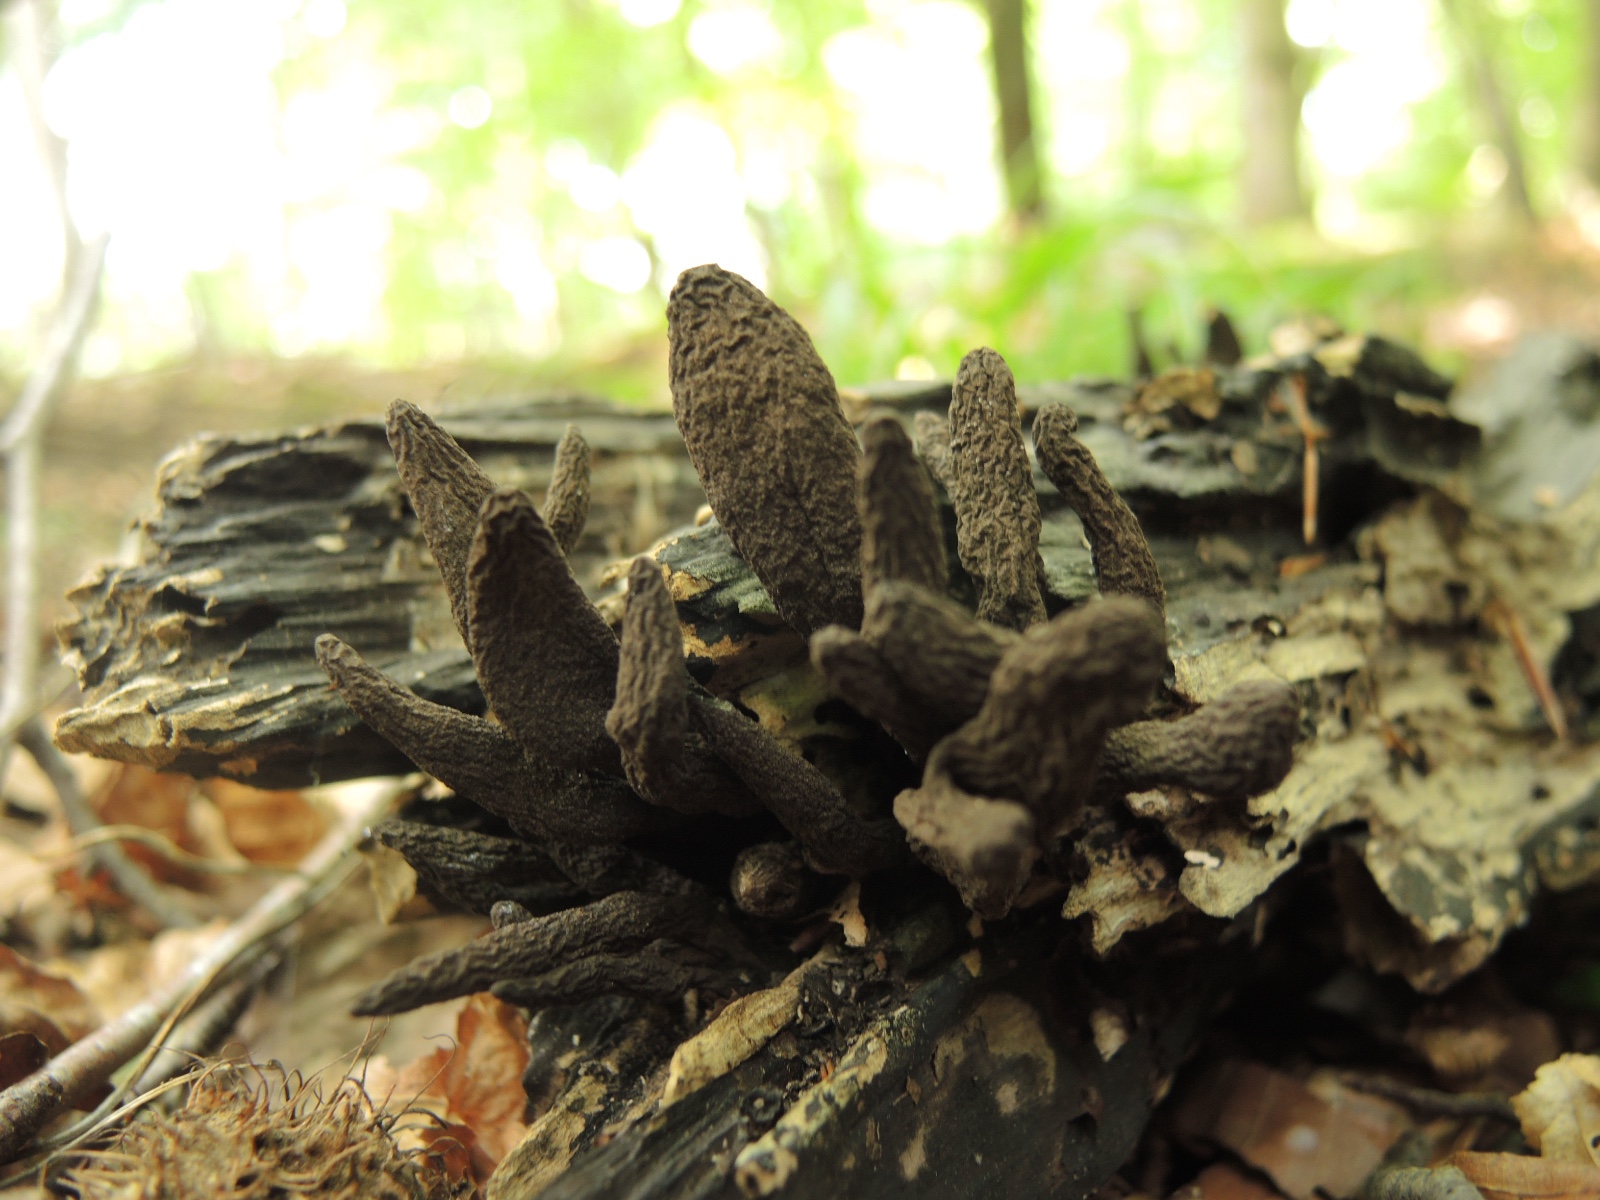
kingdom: Fungi
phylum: Ascomycota
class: Sordariomycetes
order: Xylariales
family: Xylariaceae
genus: Xylaria
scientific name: Xylaria polymorpha
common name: kølle-stødsvamp
